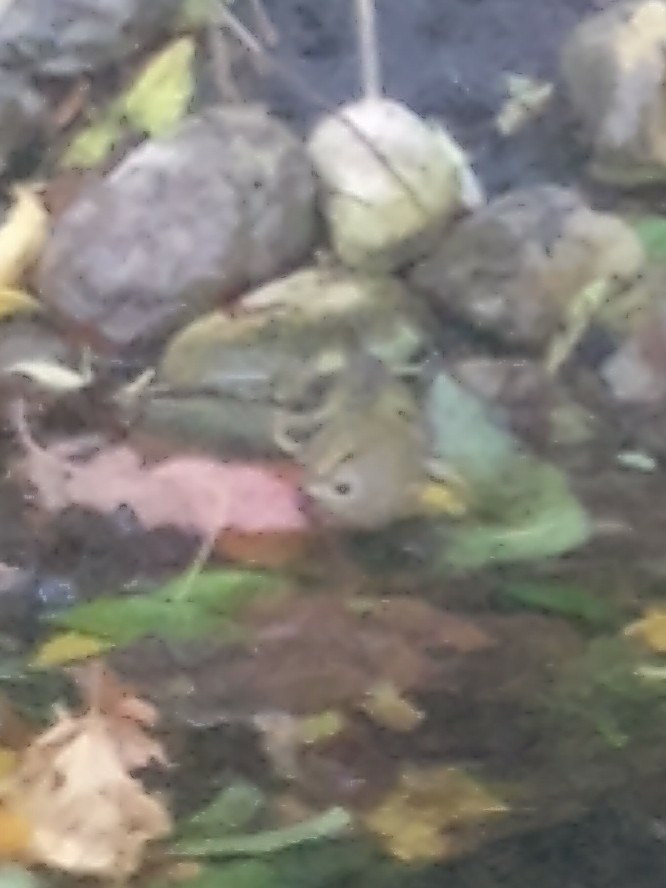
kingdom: Animalia
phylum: Chordata
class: Aves
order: Passeriformes
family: Regulidae
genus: Regulus
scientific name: Regulus regulus
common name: Fuglekonge
